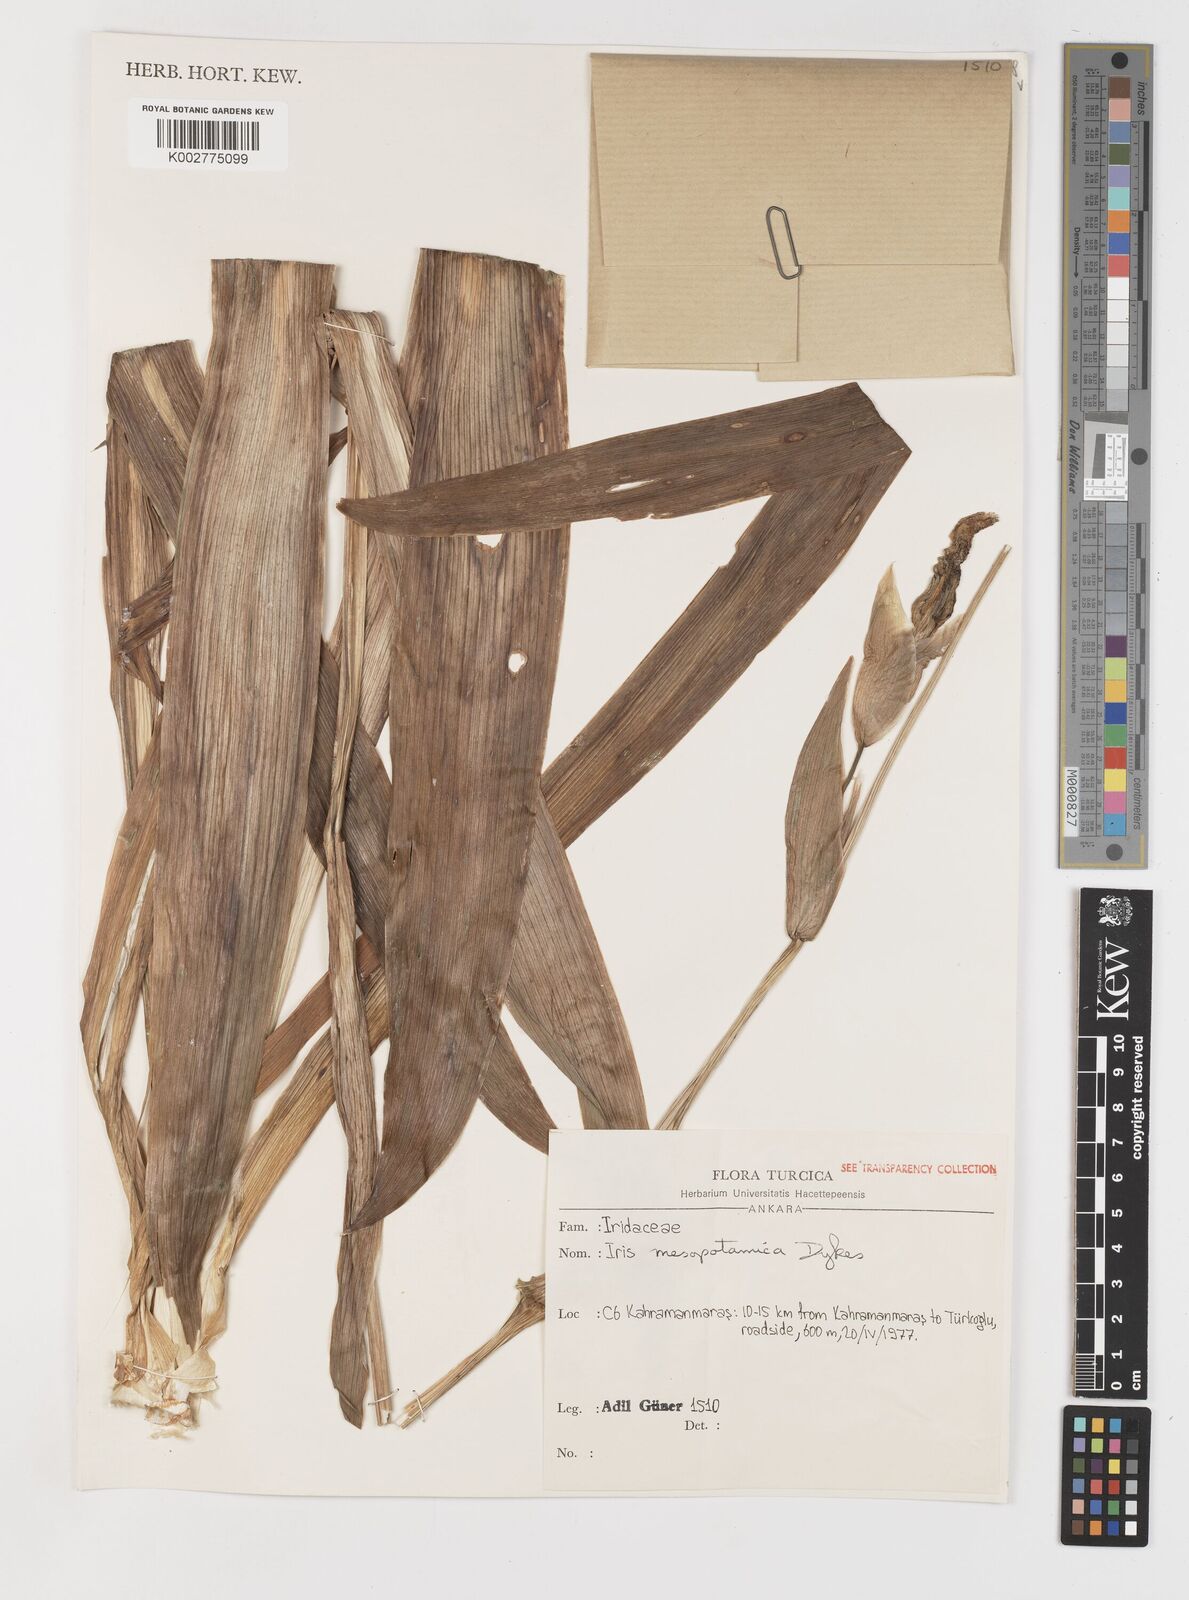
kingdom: Plantae
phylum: Tracheophyta
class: Liliopsida
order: Asparagales
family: Iridaceae
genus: Iris
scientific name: Iris germanica
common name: German iris
